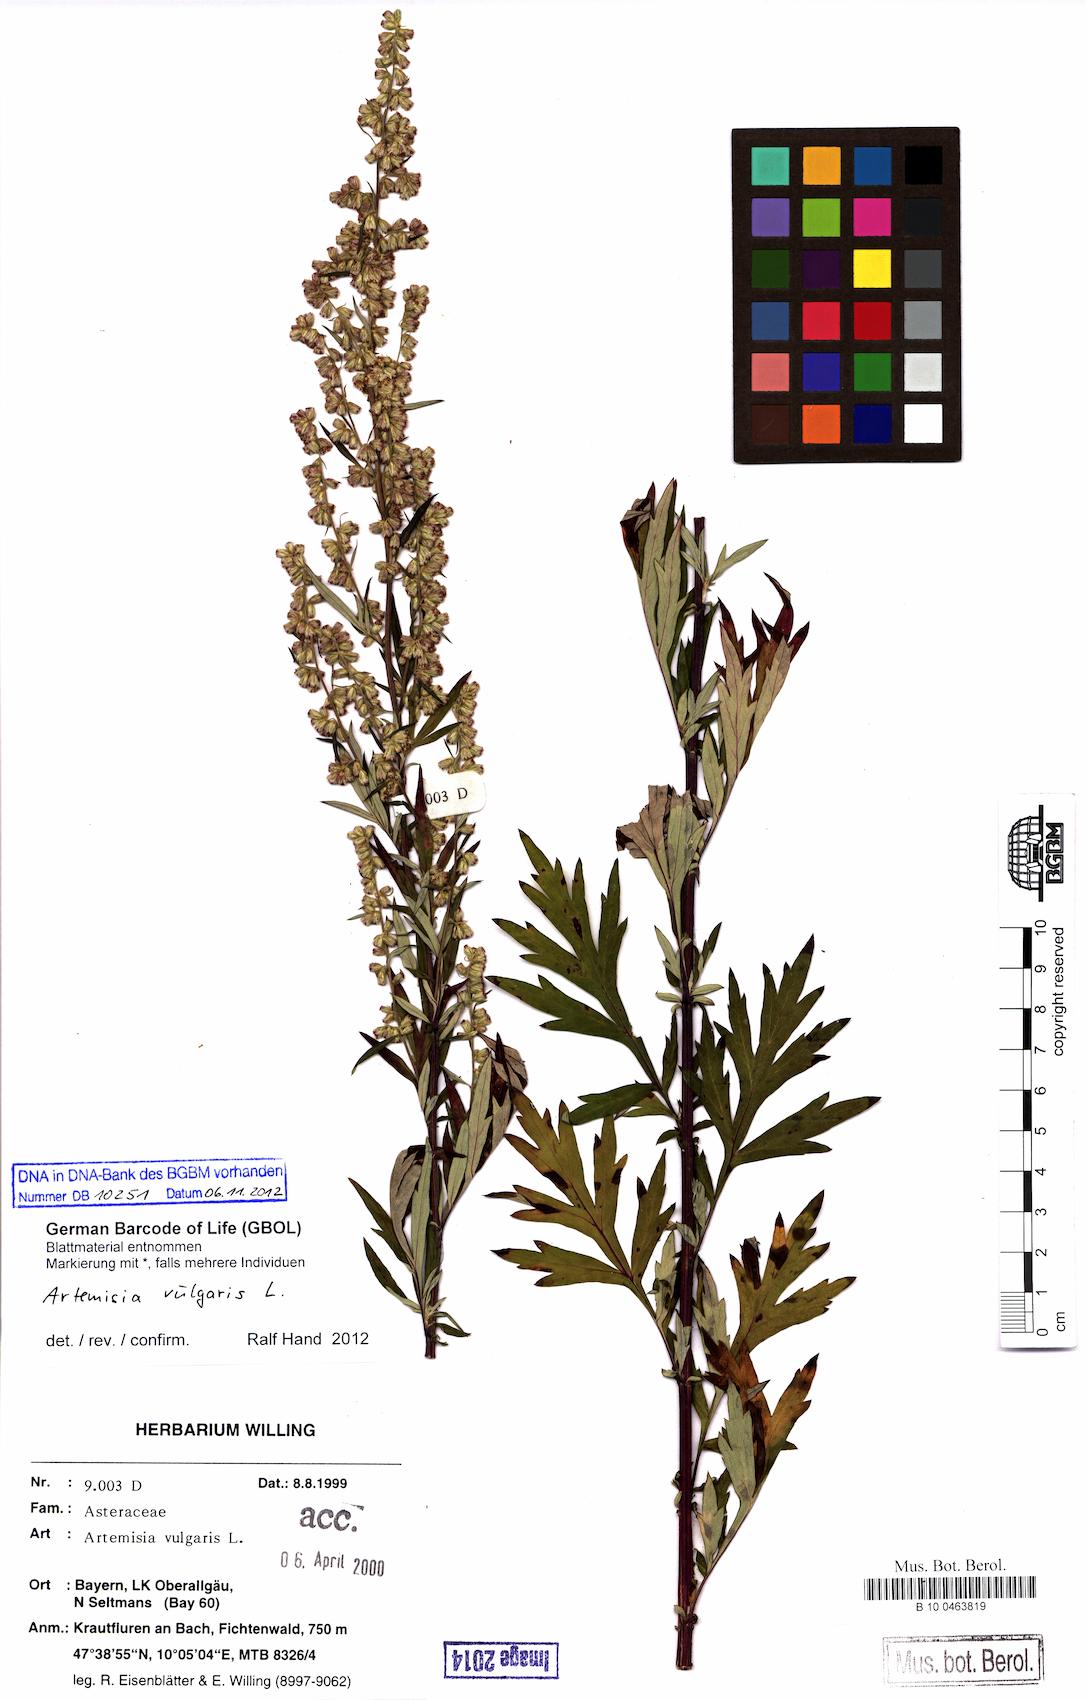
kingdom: Plantae
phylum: Tracheophyta
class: Magnoliopsida
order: Asterales
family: Asteraceae
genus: Artemisia
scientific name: Artemisia vulgaris
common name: Mugwort
